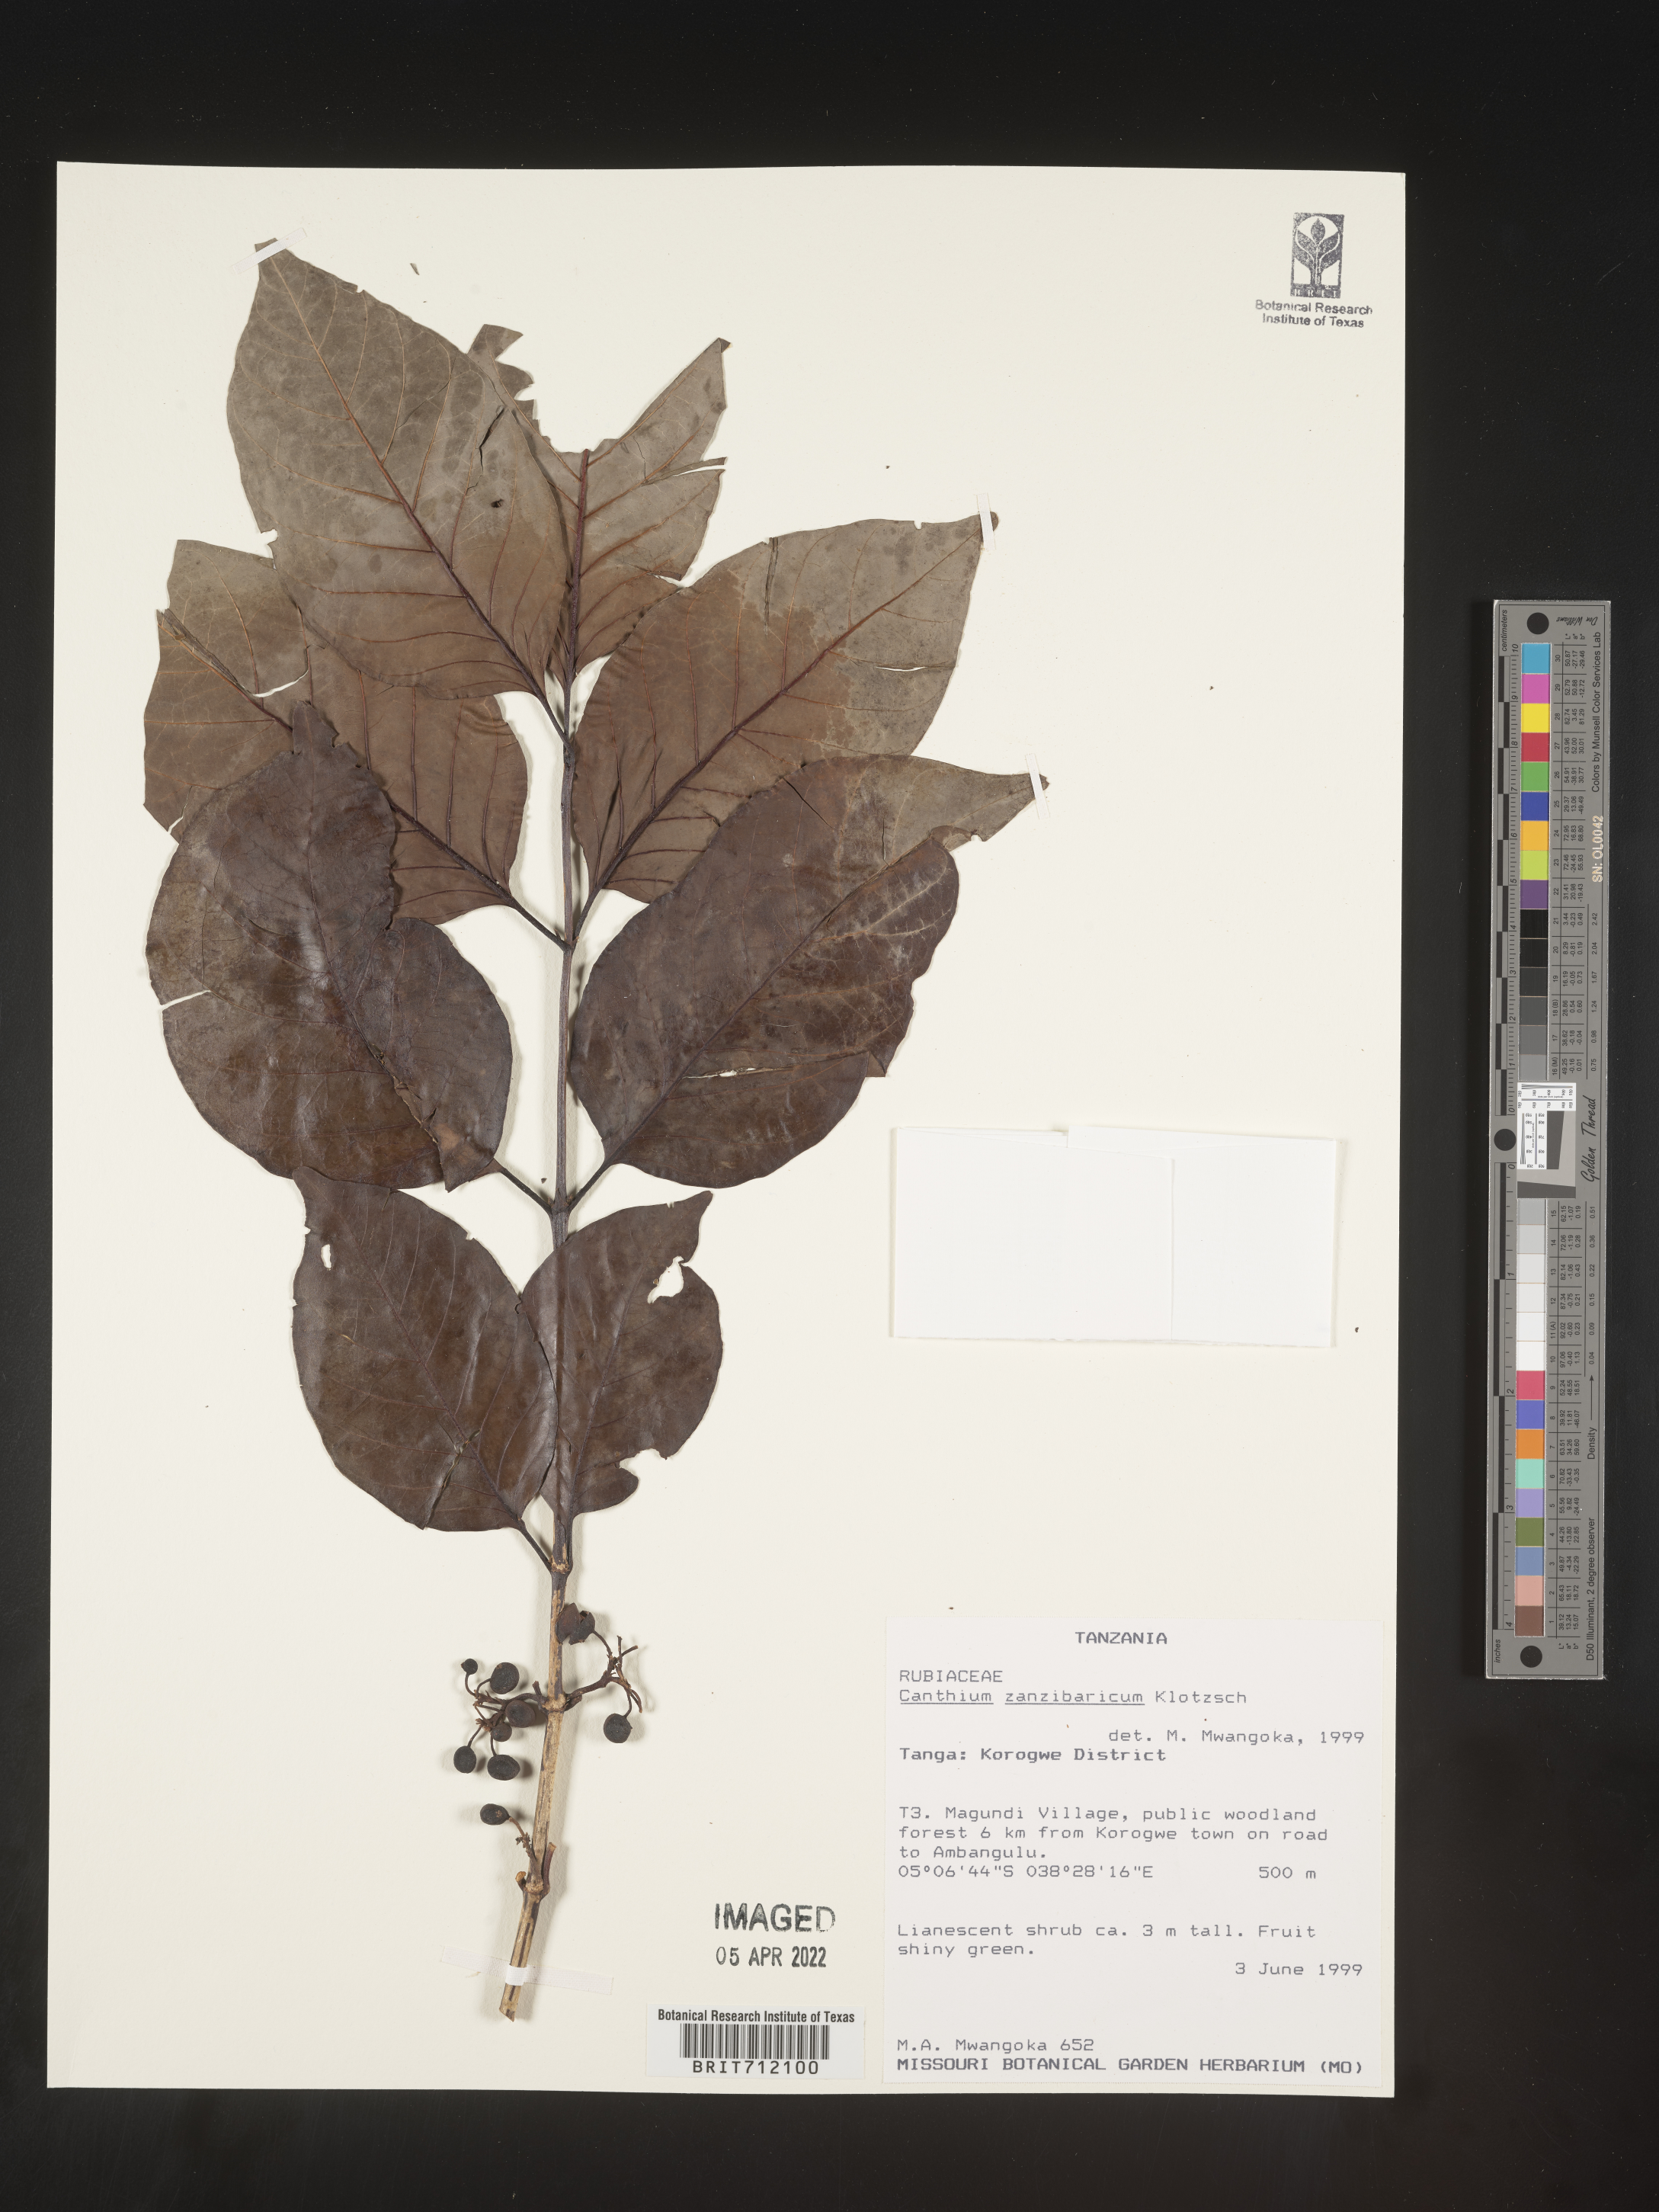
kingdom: Plantae
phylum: Tracheophyta
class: Magnoliopsida
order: Gentianales
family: Rubiaceae
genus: Canthium
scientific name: Canthium
